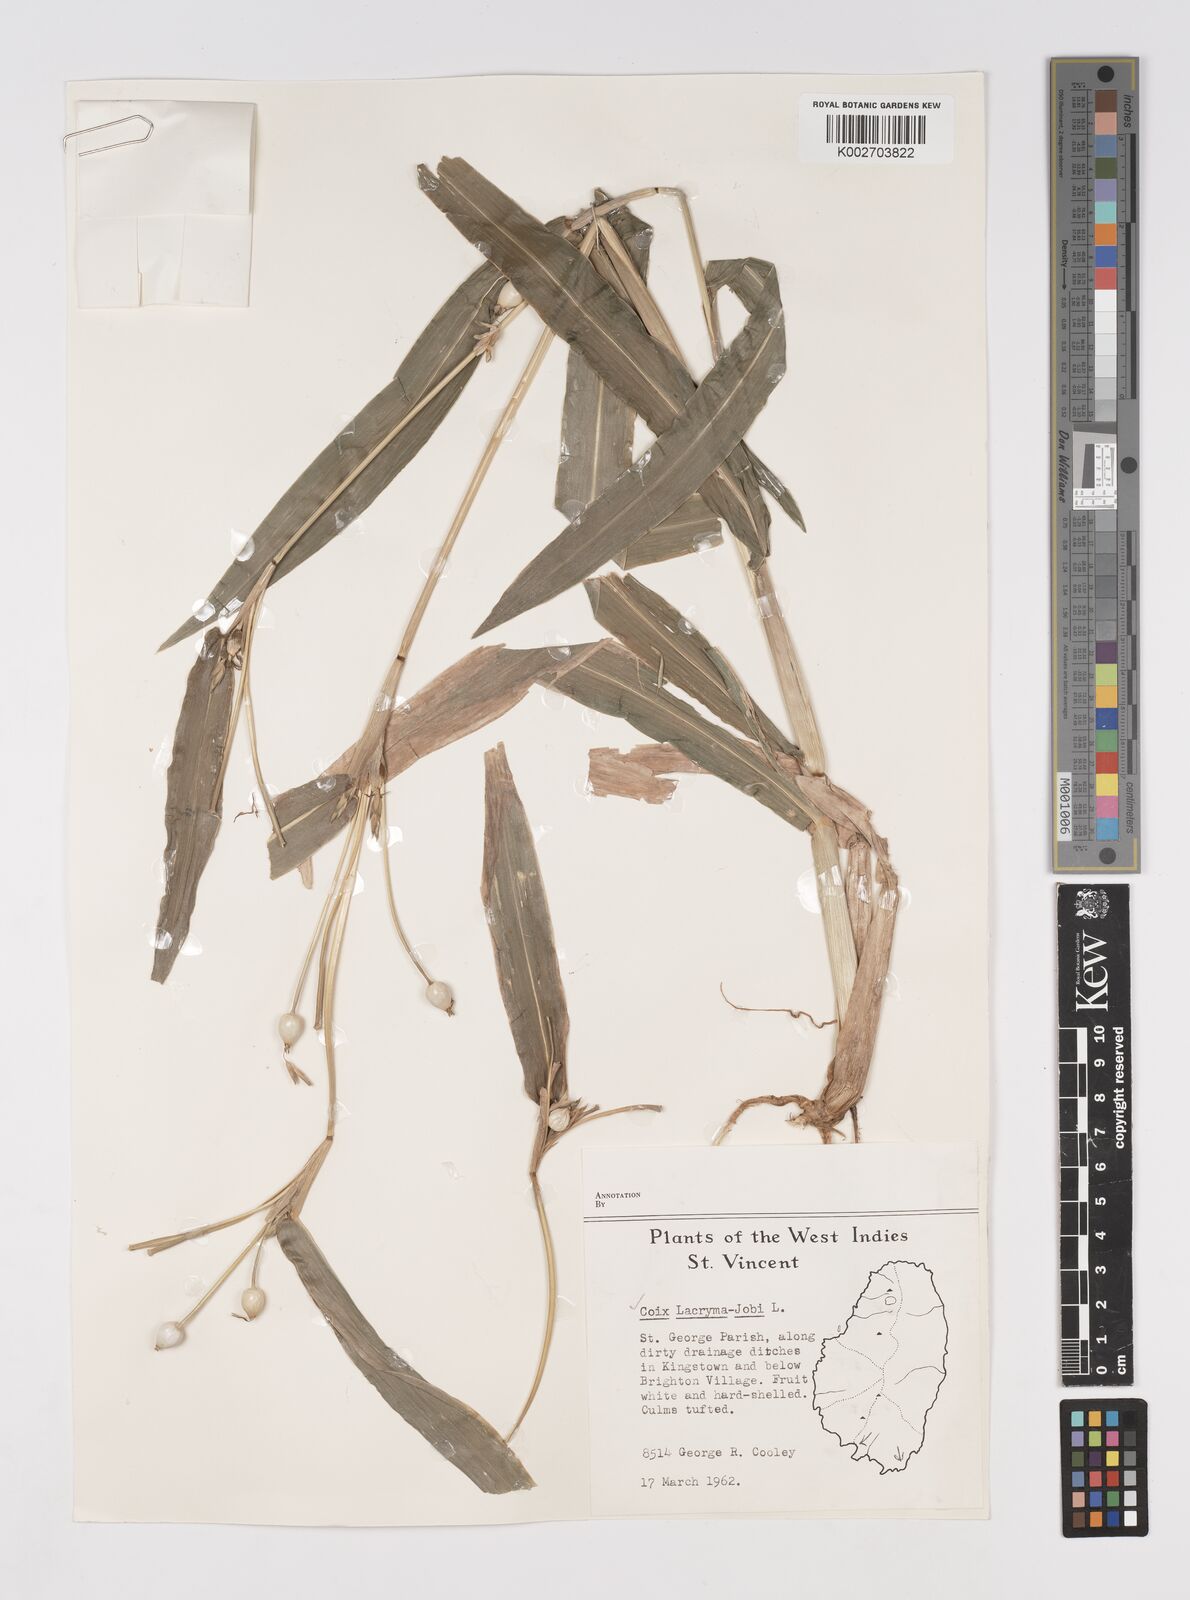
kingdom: Plantae
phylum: Tracheophyta
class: Liliopsida
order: Poales
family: Poaceae
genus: Coix
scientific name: Coix lacryma-jobi
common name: Job's tears
